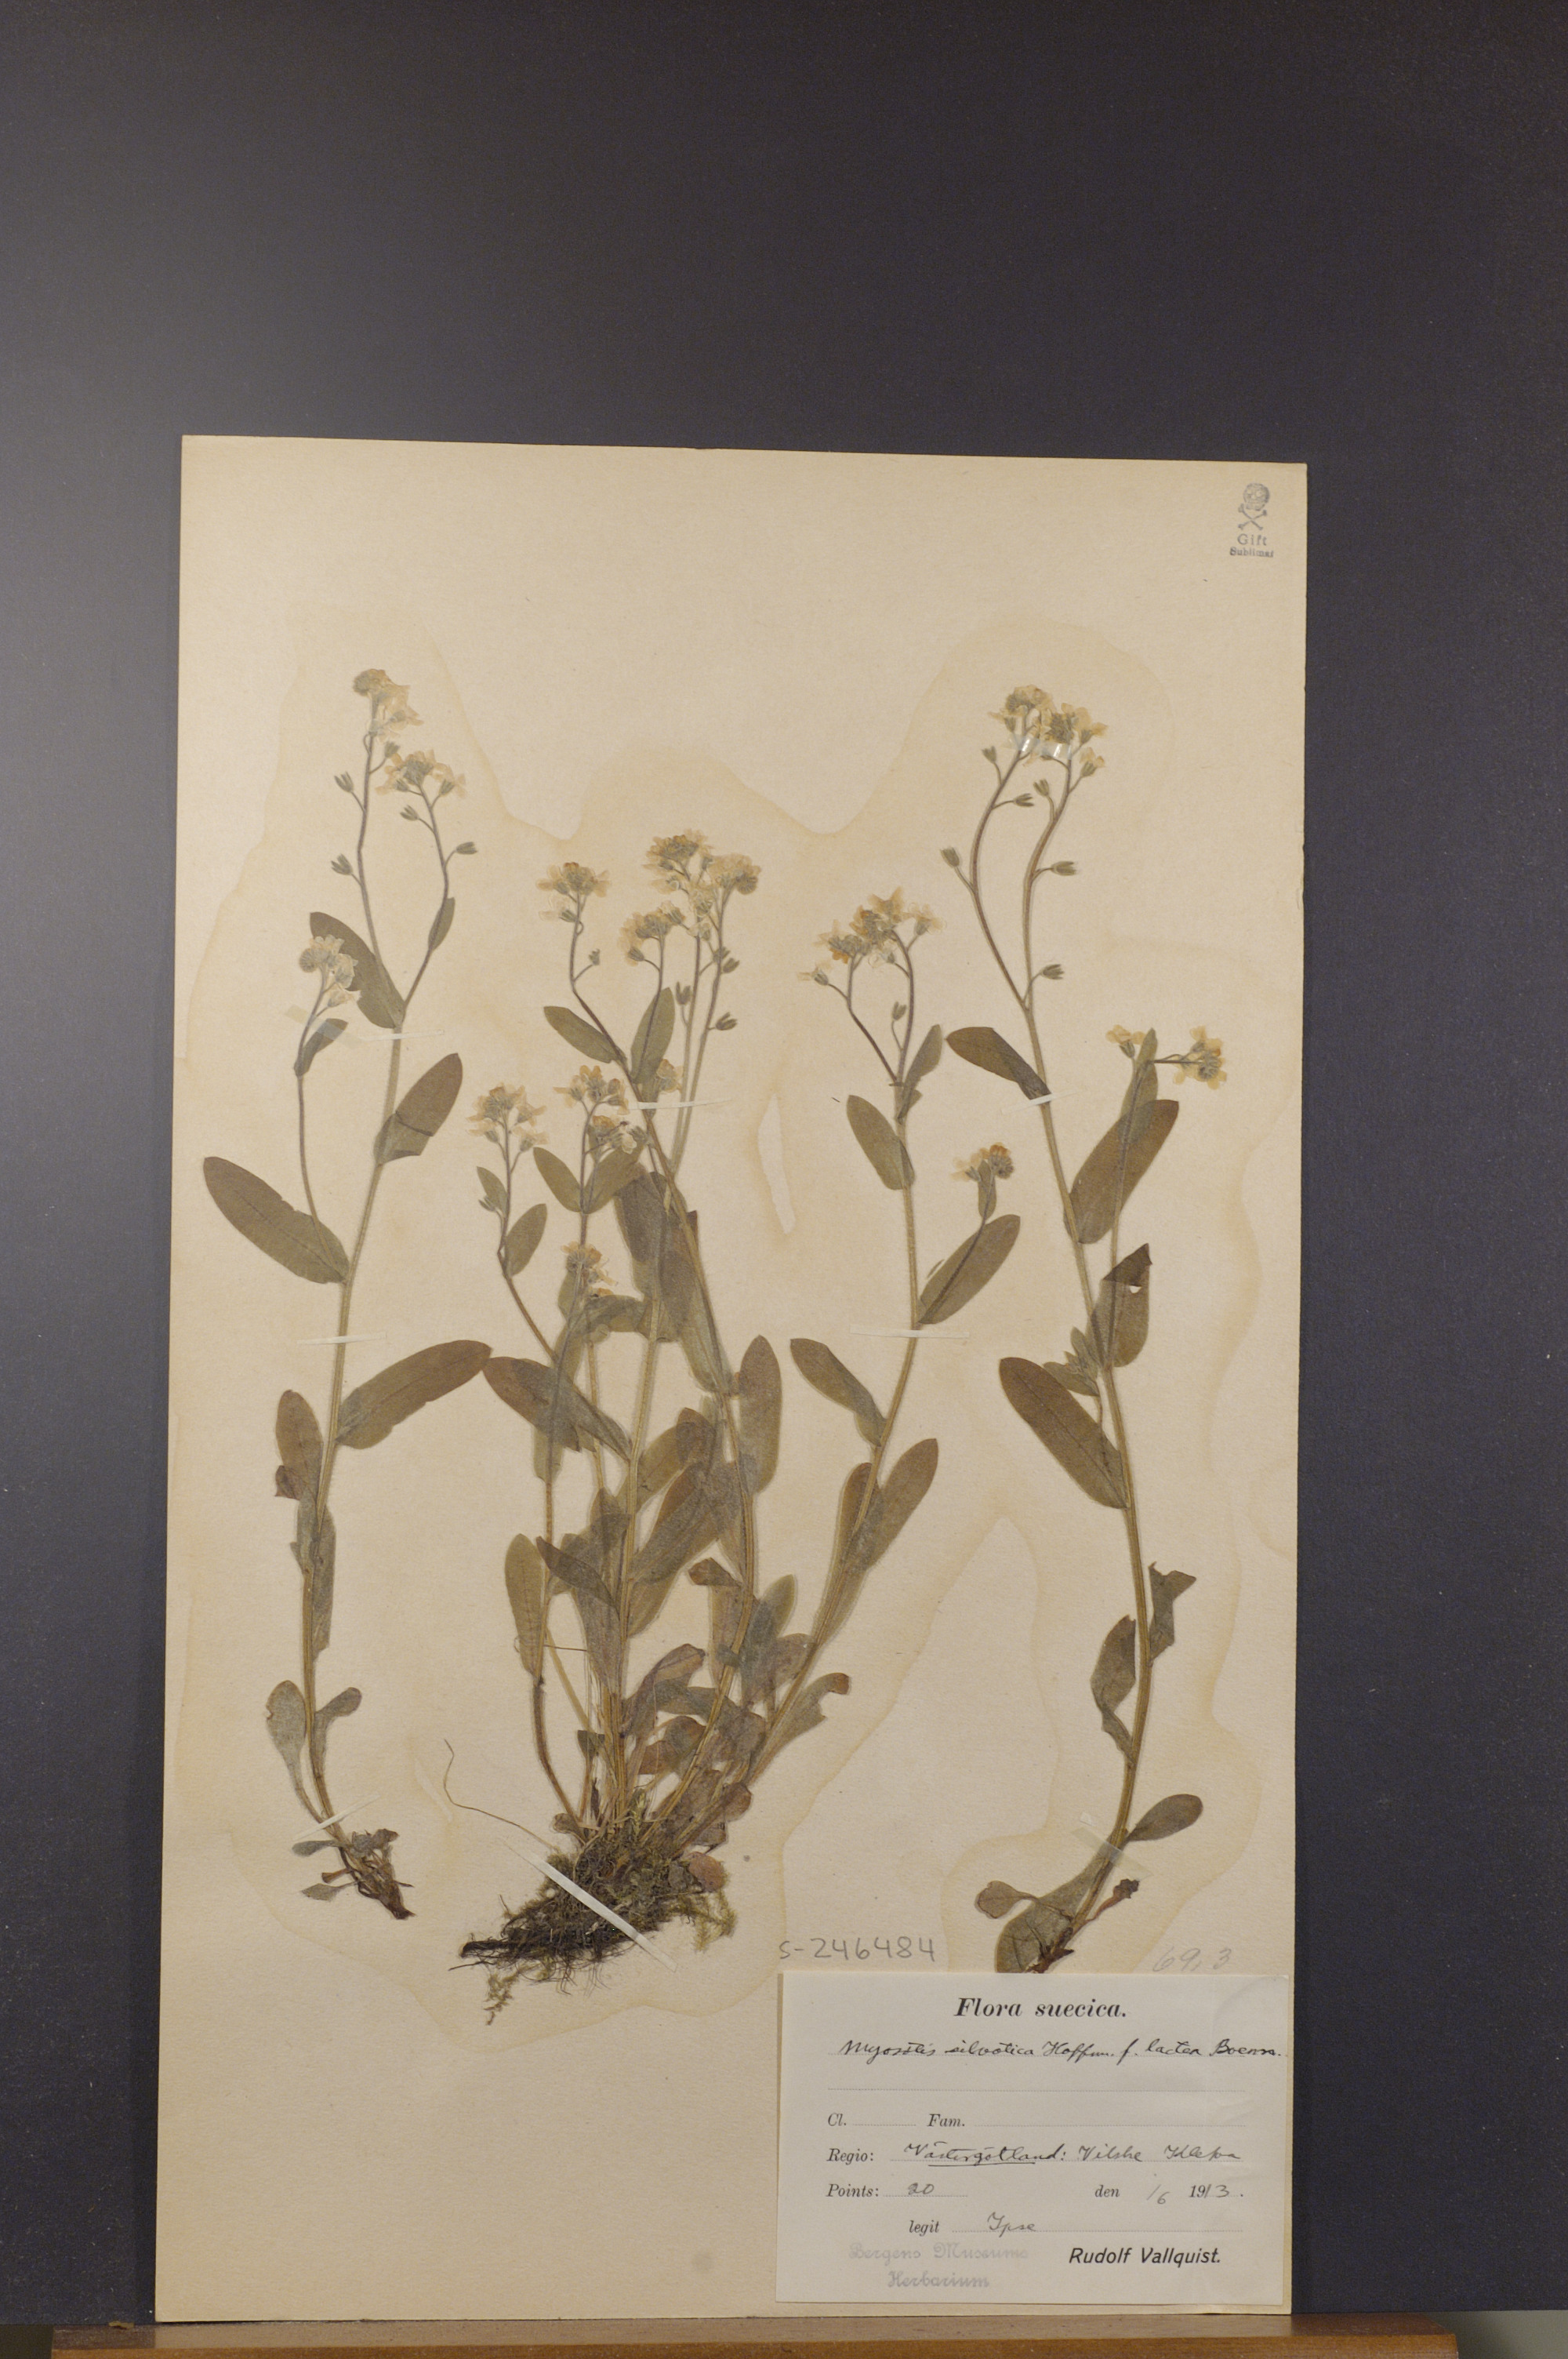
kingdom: Plantae
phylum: Tracheophyta
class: Magnoliopsida
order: Boraginales
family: Boraginaceae
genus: Myosotis
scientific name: Myosotis sylvatica
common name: Wood forget-me-not
